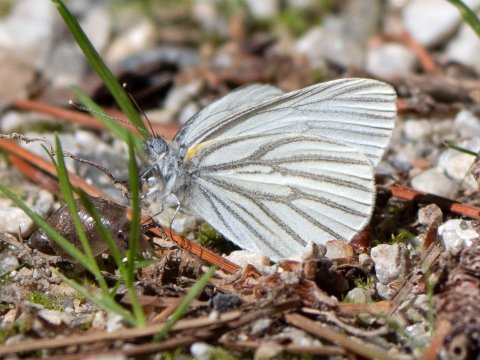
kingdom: Animalia
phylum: Arthropoda
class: Insecta
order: Lepidoptera
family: Pieridae
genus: Pieris
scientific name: Pieris oleracea
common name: Mustard White
